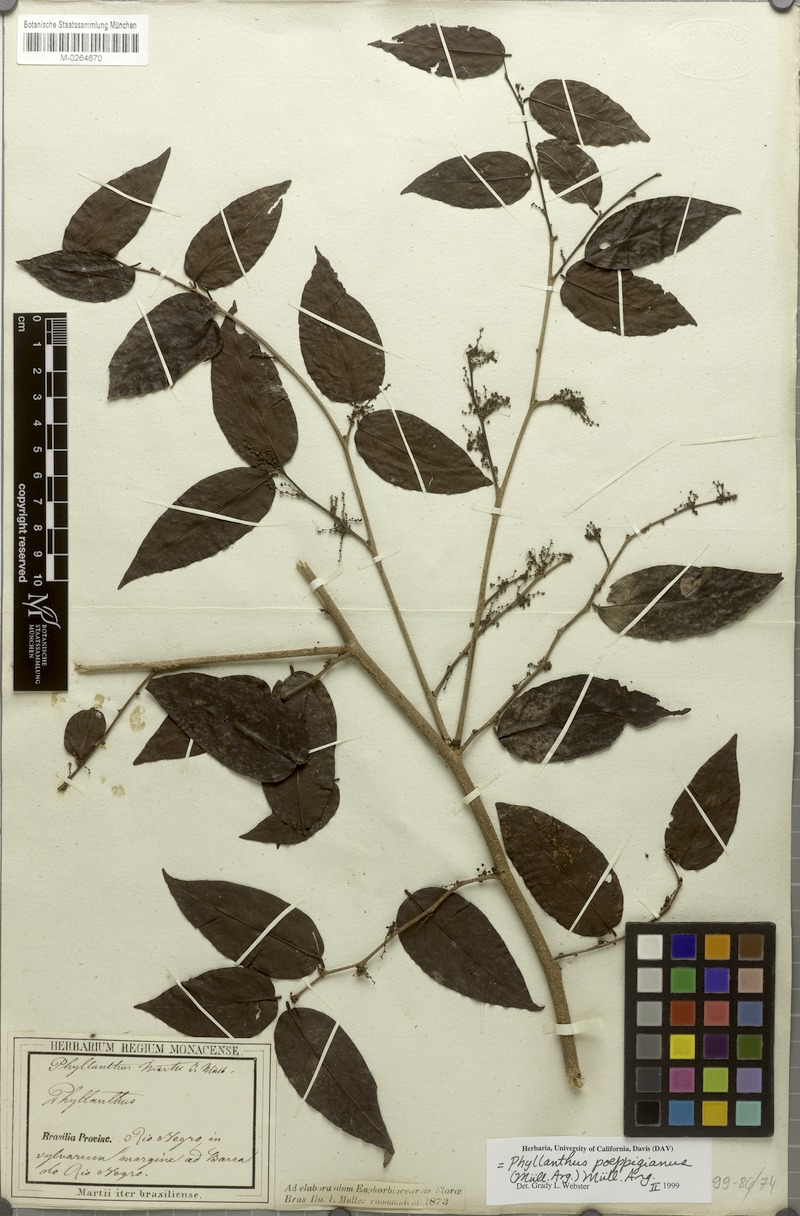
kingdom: Plantae
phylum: Tracheophyta
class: Magnoliopsida
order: Malpighiales
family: Phyllanthaceae
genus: Phyllanthus
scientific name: Phyllanthus poeppigianus
